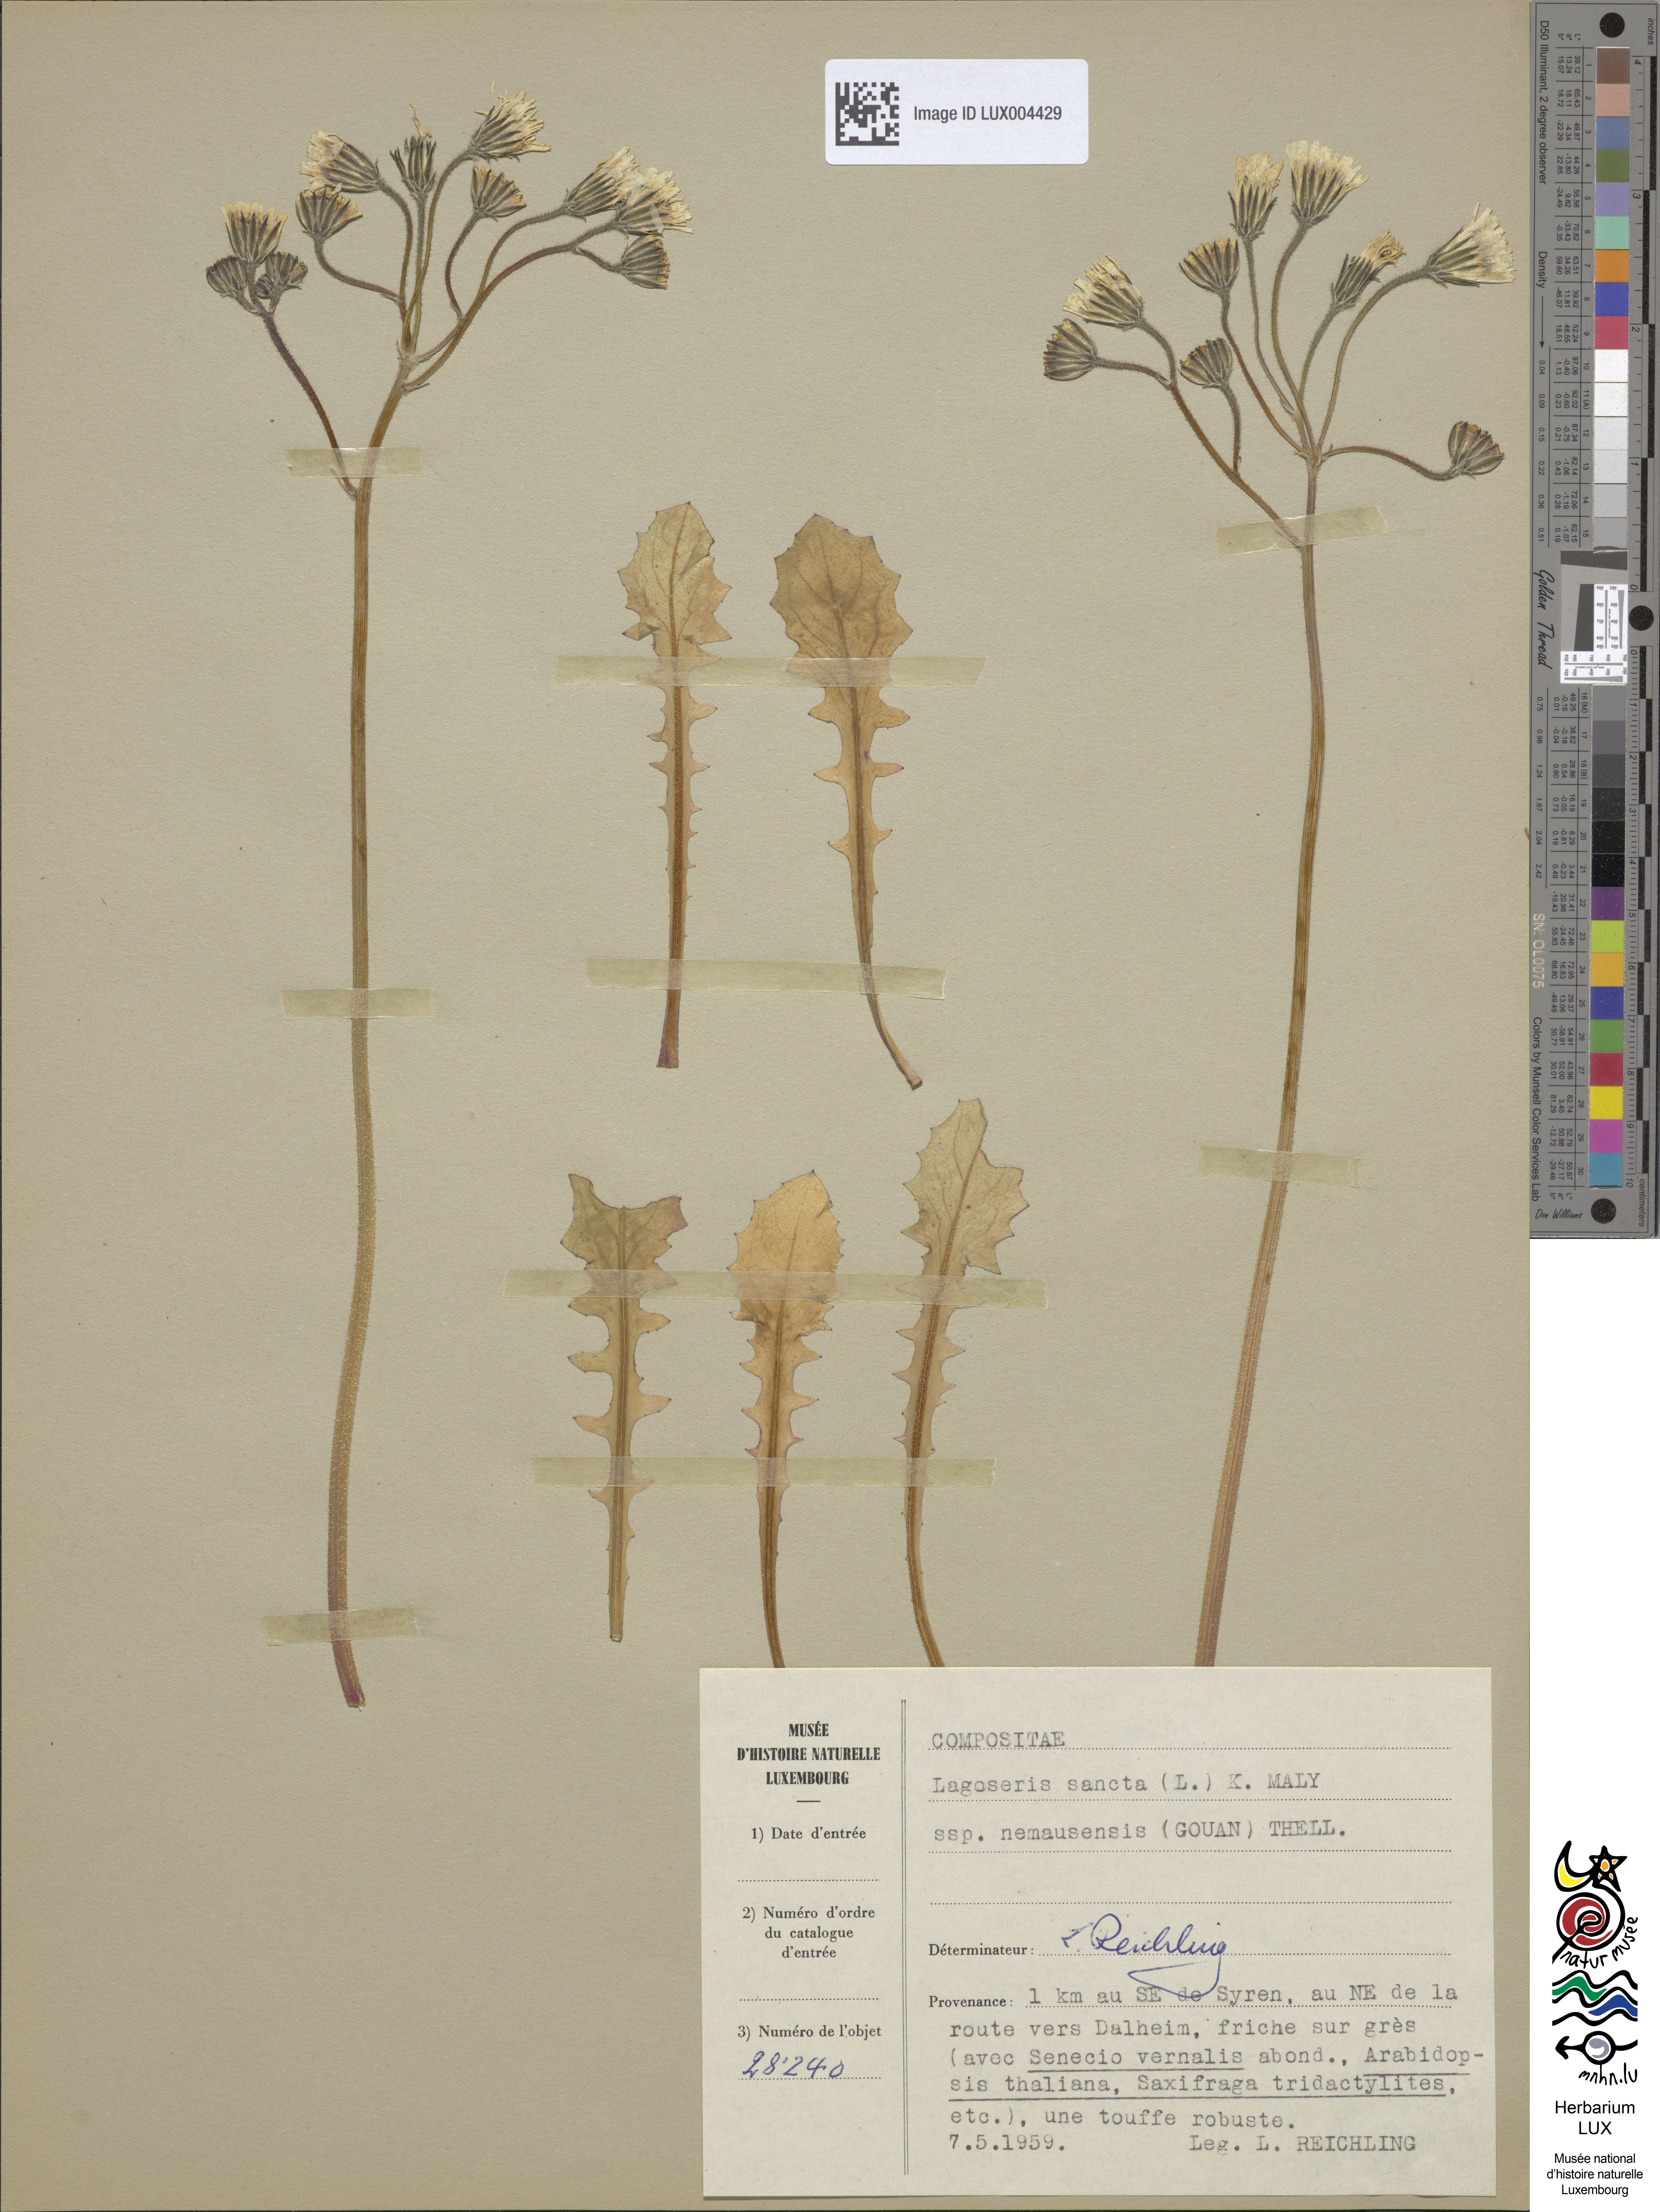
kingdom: Plantae
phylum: Tracheophyta
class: Magnoliopsida
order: Asterales
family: Asteraceae
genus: Crepis
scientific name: Crepis sancta
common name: Hawk's-beard
